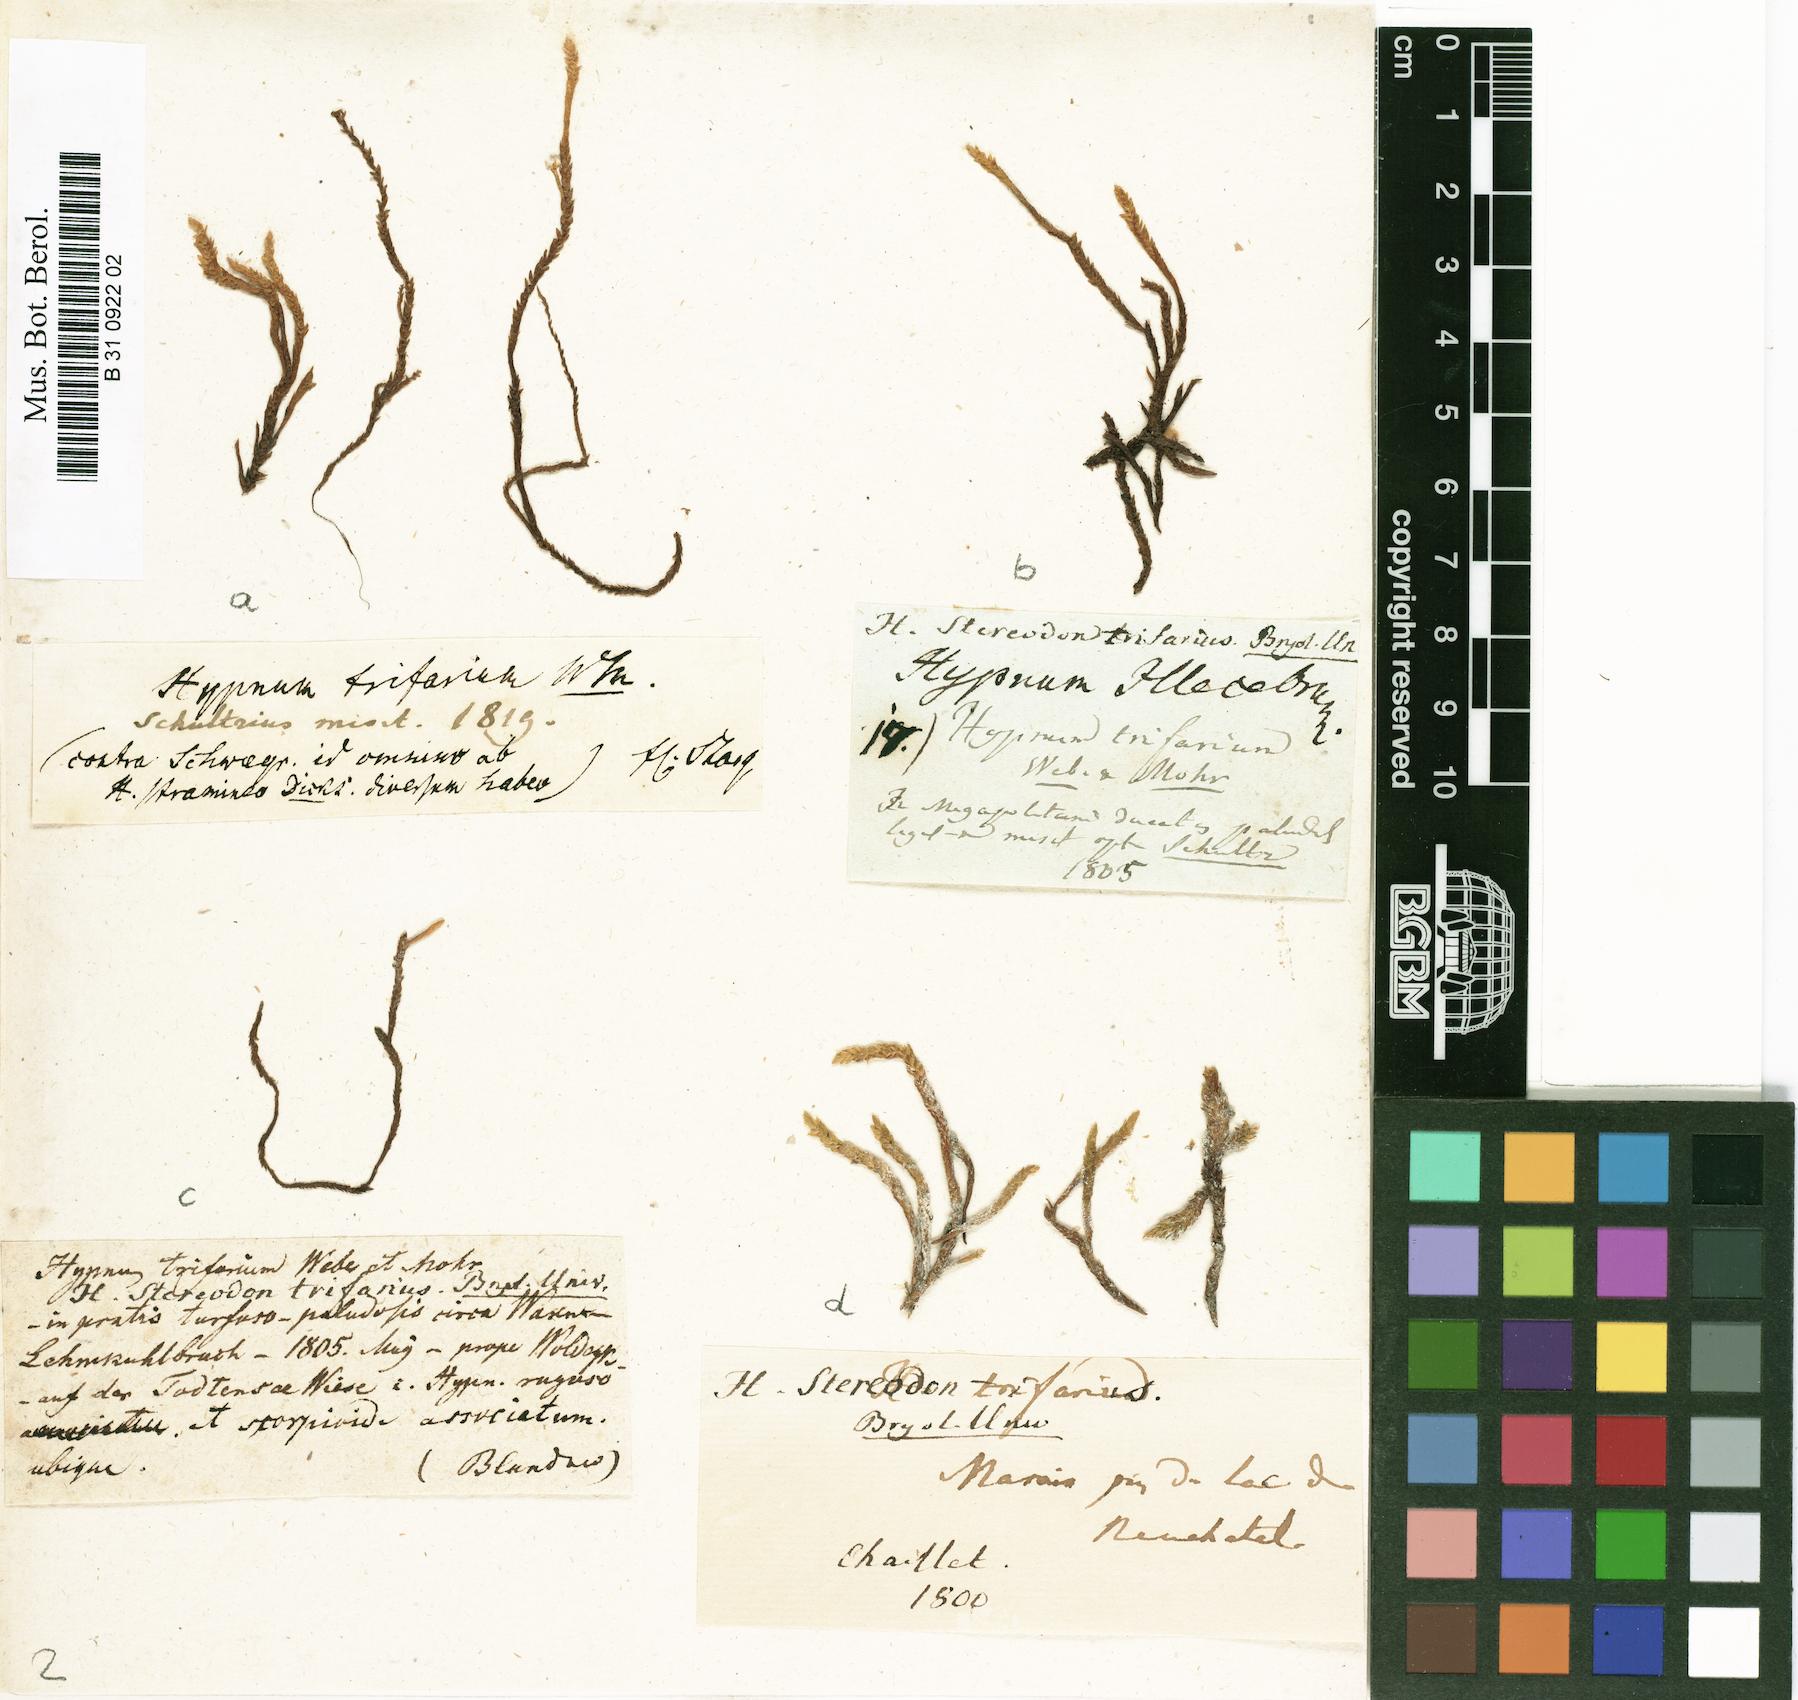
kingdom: Plantae
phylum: Bryophyta
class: Bryopsida
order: Hypnales
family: Amblystegiaceae
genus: Drepanocladus
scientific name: Drepanocladus trifarius
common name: Calliergon moss
